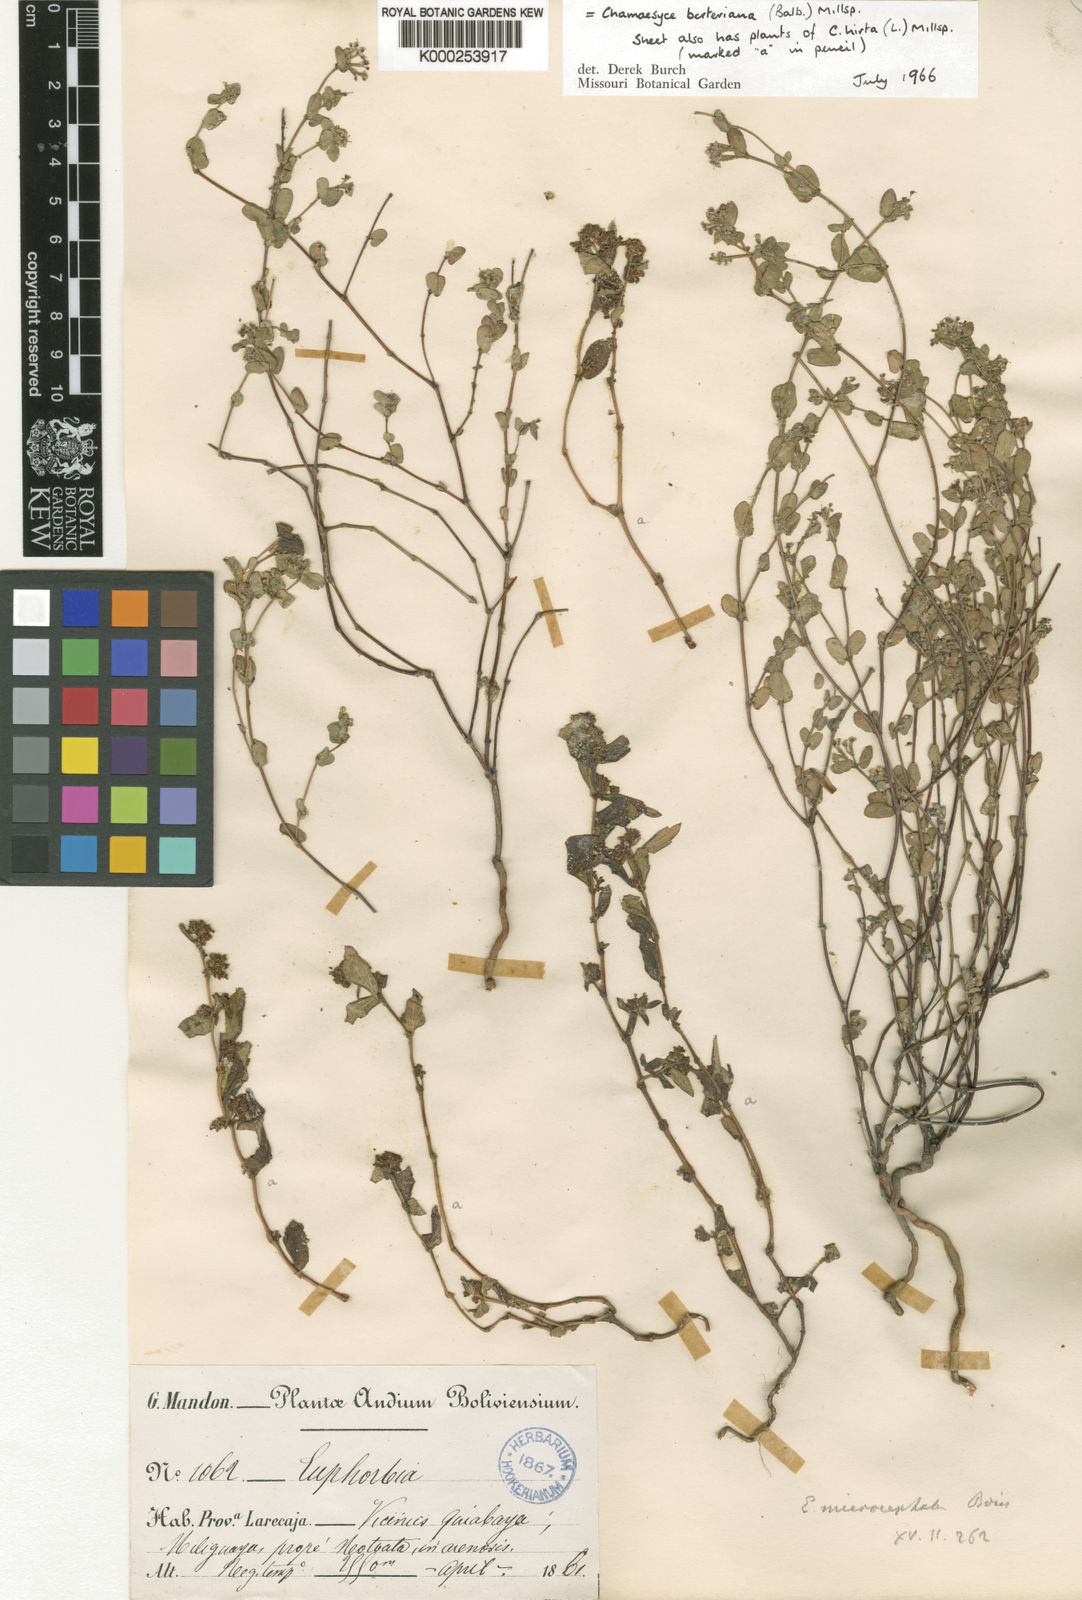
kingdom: Plantae
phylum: Tracheophyta
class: Magnoliopsida
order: Malpighiales
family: Euphorbiaceae
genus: Euphorbia
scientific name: Euphorbia berteroana
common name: Bertero's sandmat
